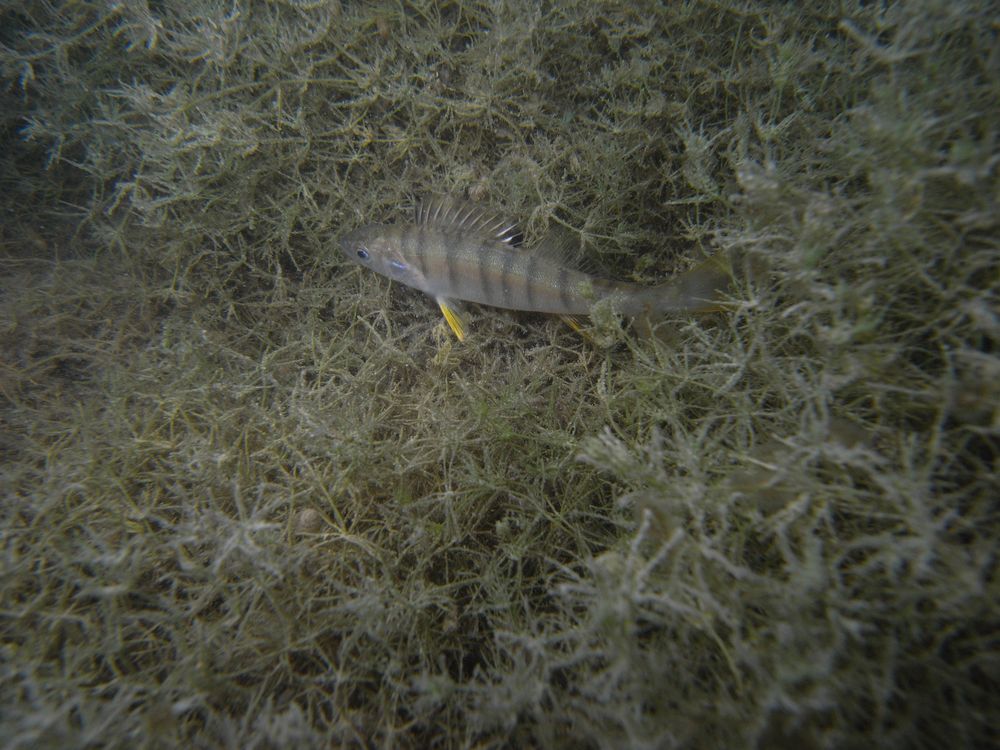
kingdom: Animalia
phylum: Chordata
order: Perciformes
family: Percidae
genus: Perca
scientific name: Perca fluviatilis
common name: Perch
